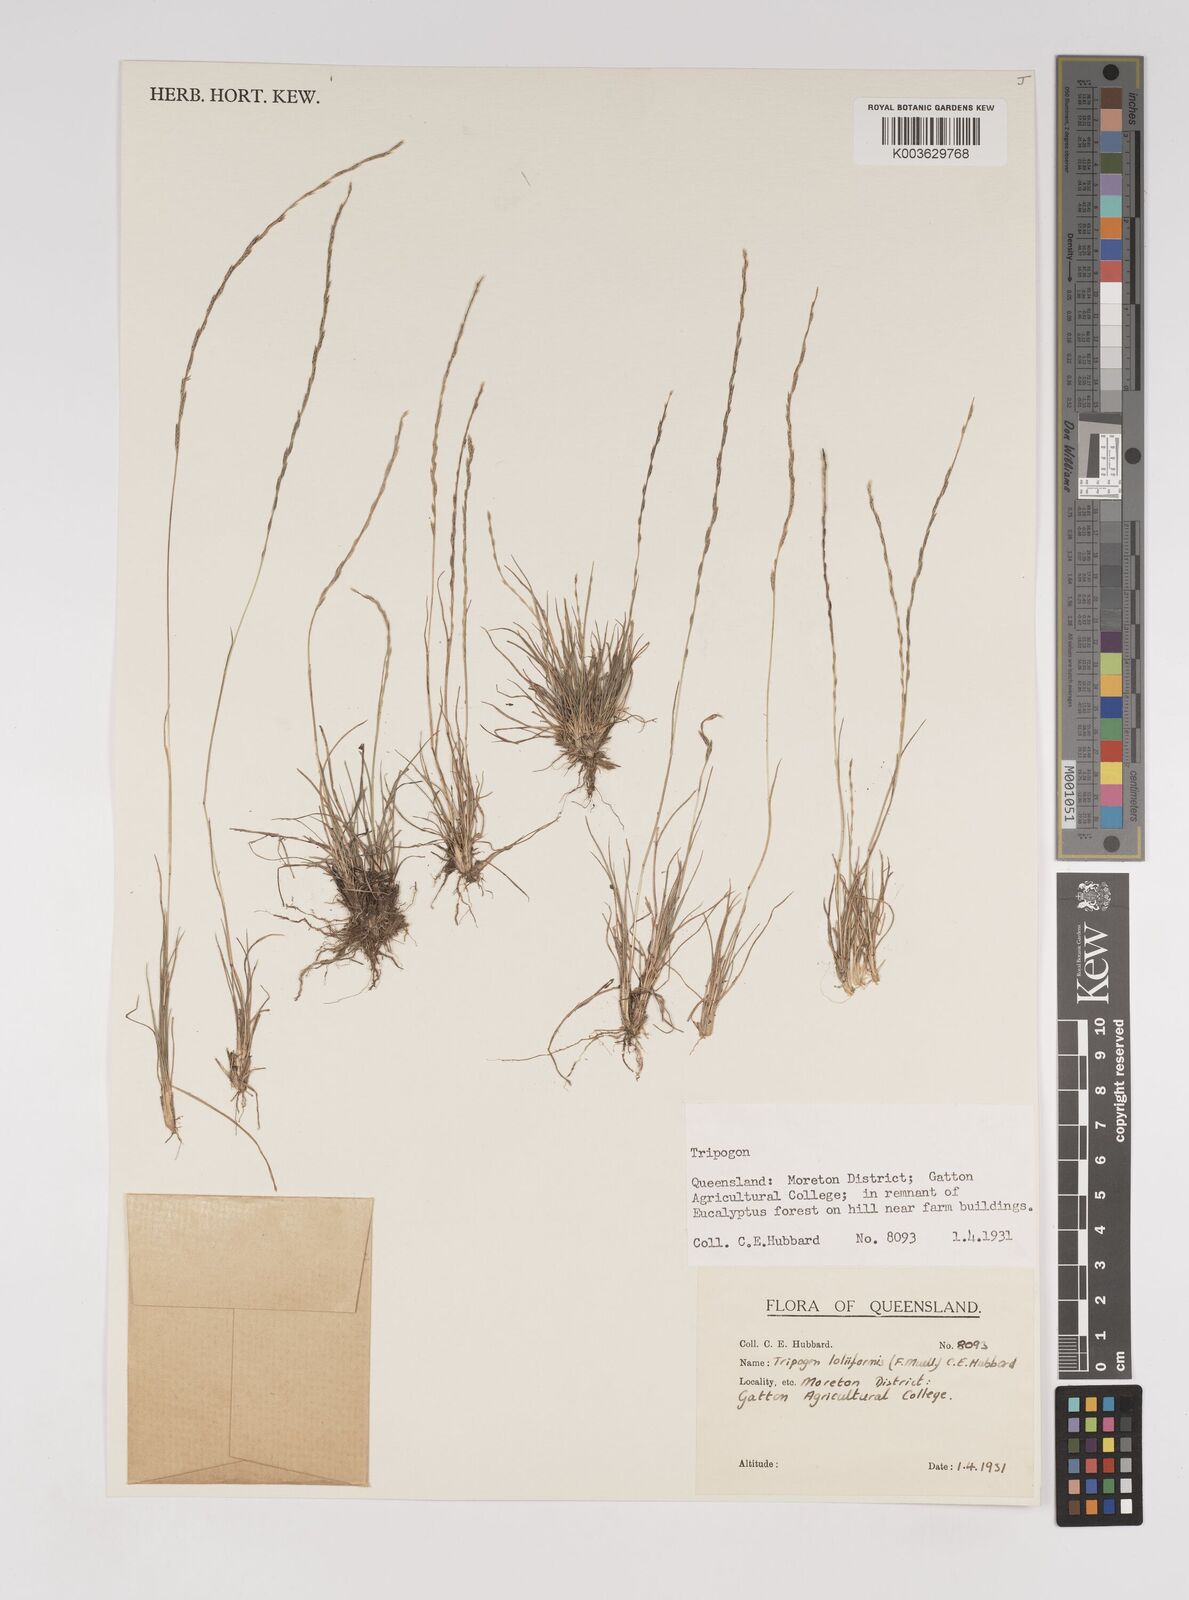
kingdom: Plantae
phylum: Tracheophyta
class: Liliopsida
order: Poales
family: Poaceae
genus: Tripogonella
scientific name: Tripogonella loliiformis
